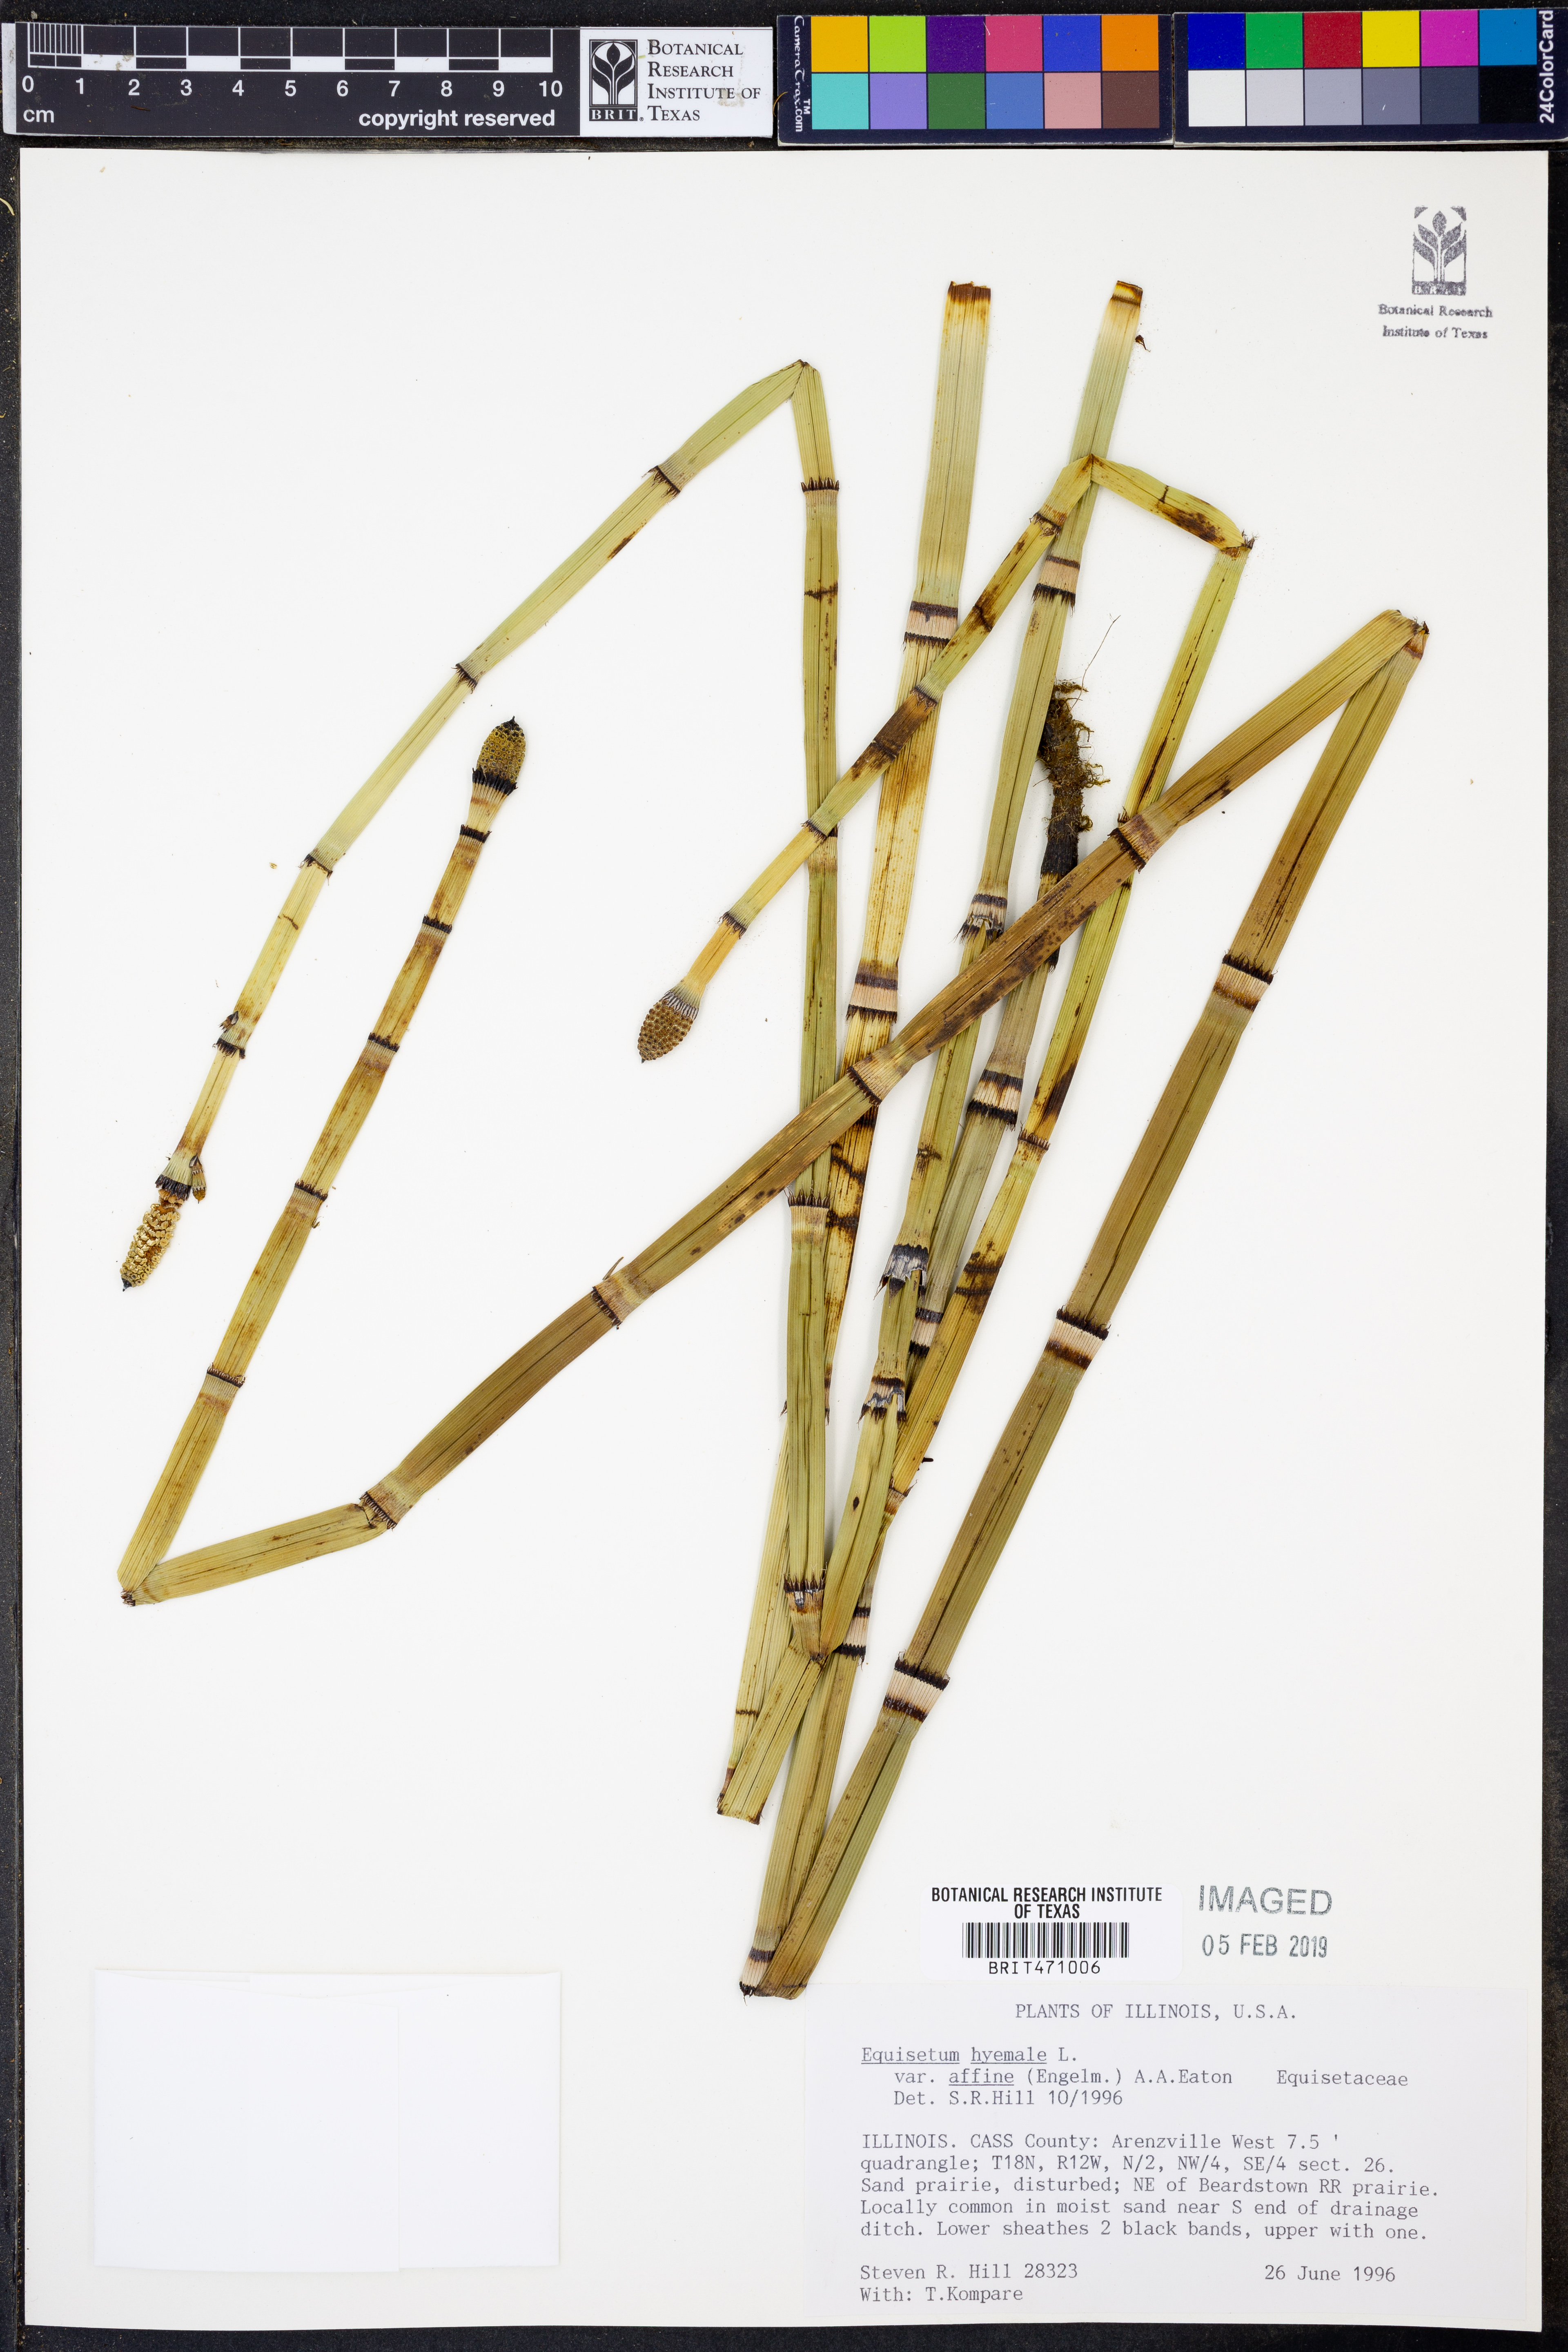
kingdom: Plantae
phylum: Tracheophyta
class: Polypodiopsida
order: Equisetales
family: Equisetaceae
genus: Equisetum
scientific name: Equisetum praealtum
